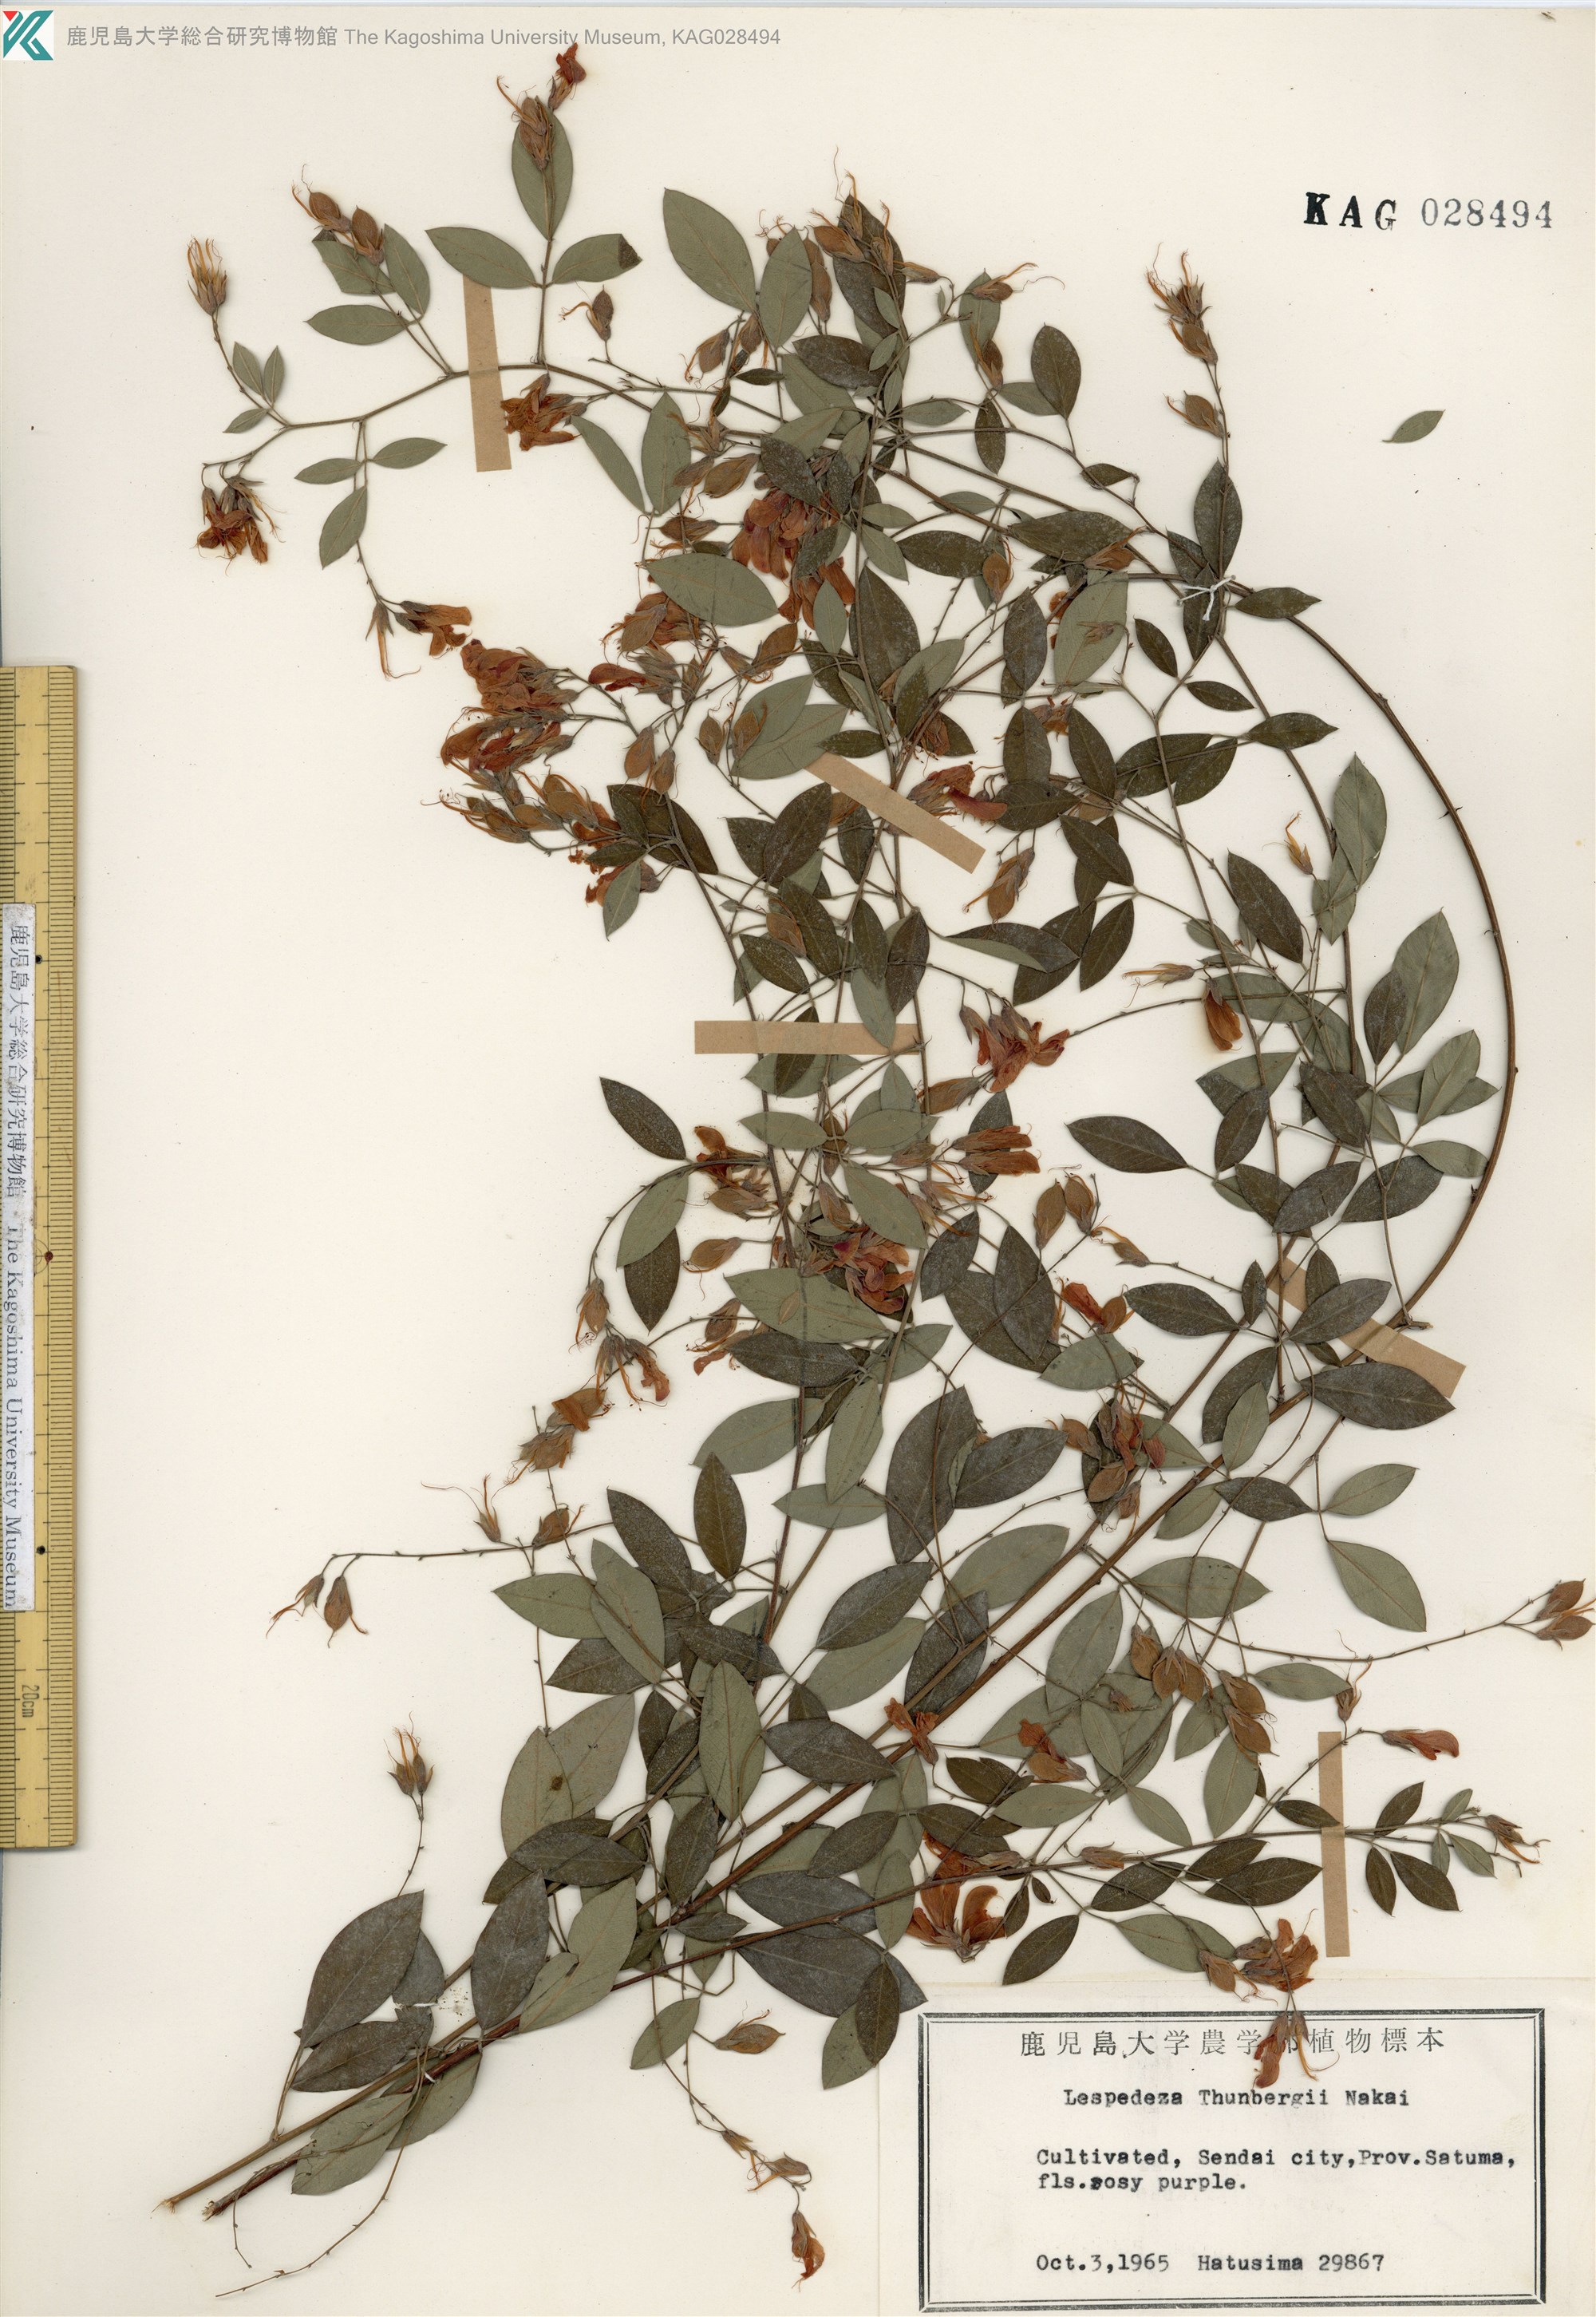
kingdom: Plantae
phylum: Tracheophyta
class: Magnoliopsida
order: Fabales
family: Fabaceae
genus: Lespedeza
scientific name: Lespedeza thunbergii
